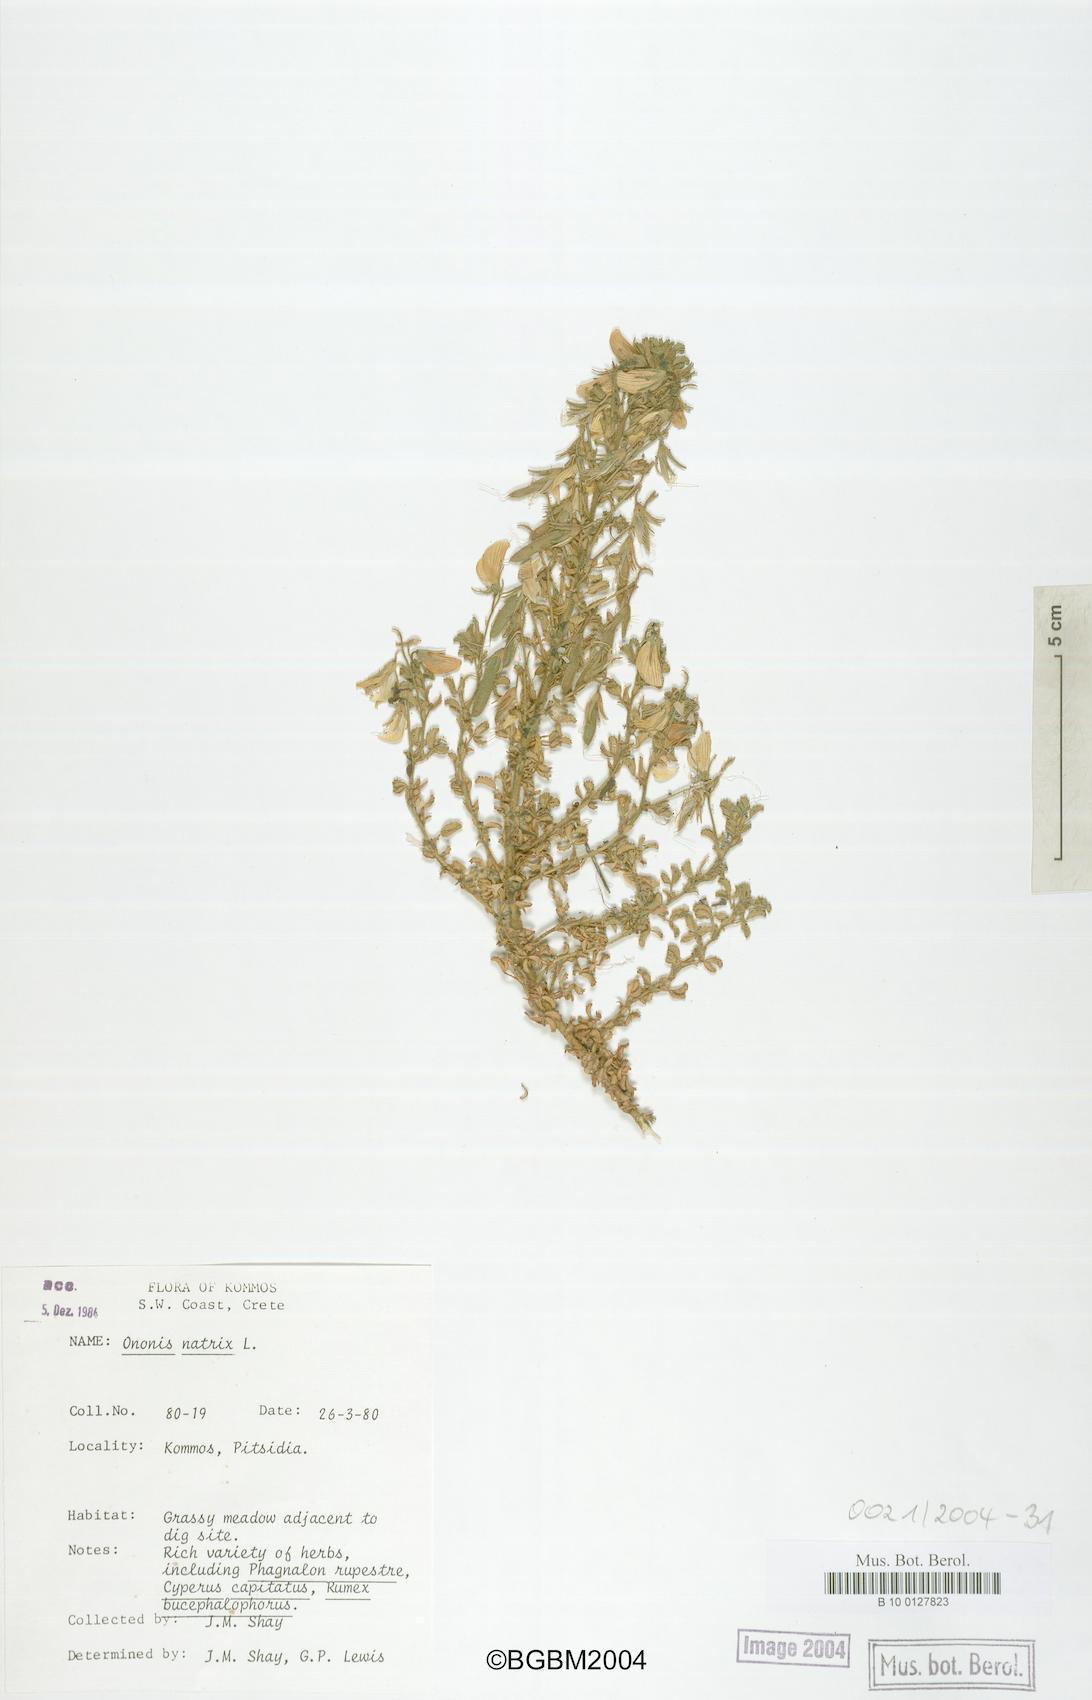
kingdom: Plantae
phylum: Tracheophyta
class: Magnoliopsida
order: Fabales
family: Fabaceae
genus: Ononis
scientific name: Ononis natrix
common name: Yellow restharrow
